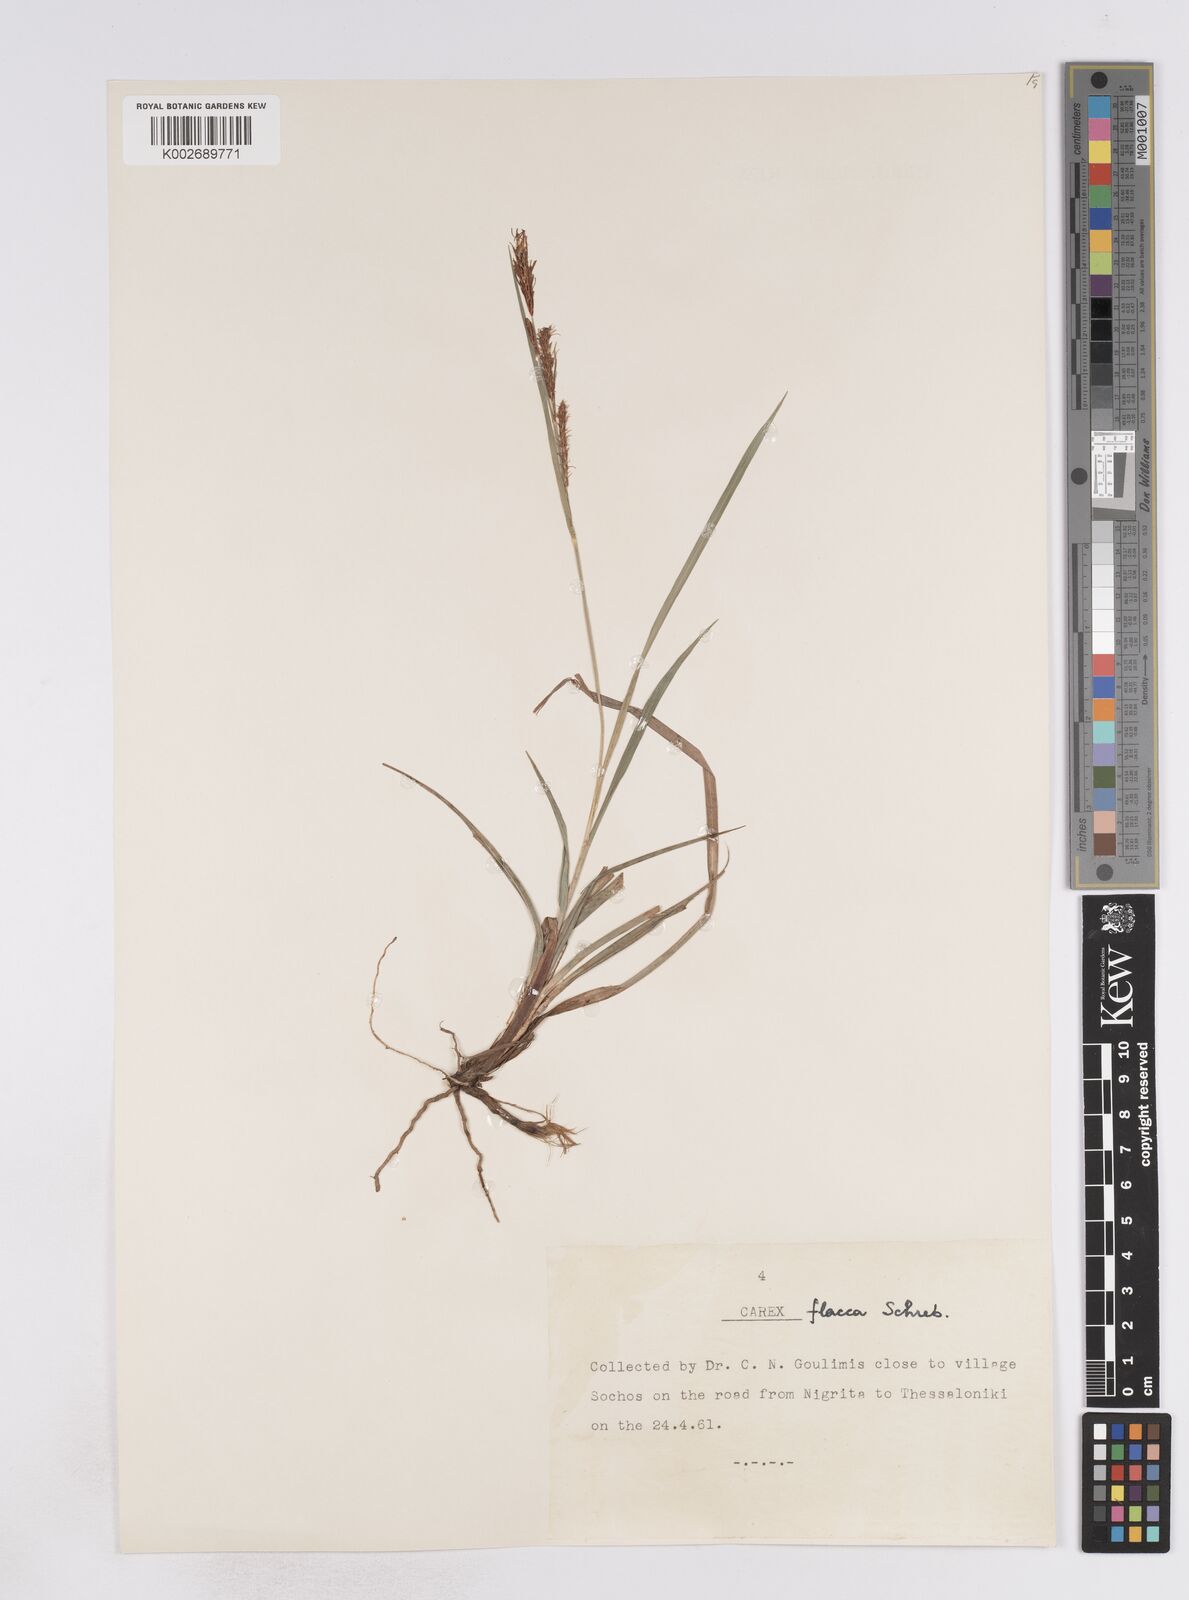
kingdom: Plantae
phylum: Tracheophyta
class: Liliopsida
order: Poales
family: Cyperaceae
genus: Carex
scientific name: Carex flacca
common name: Glaucous sedge
